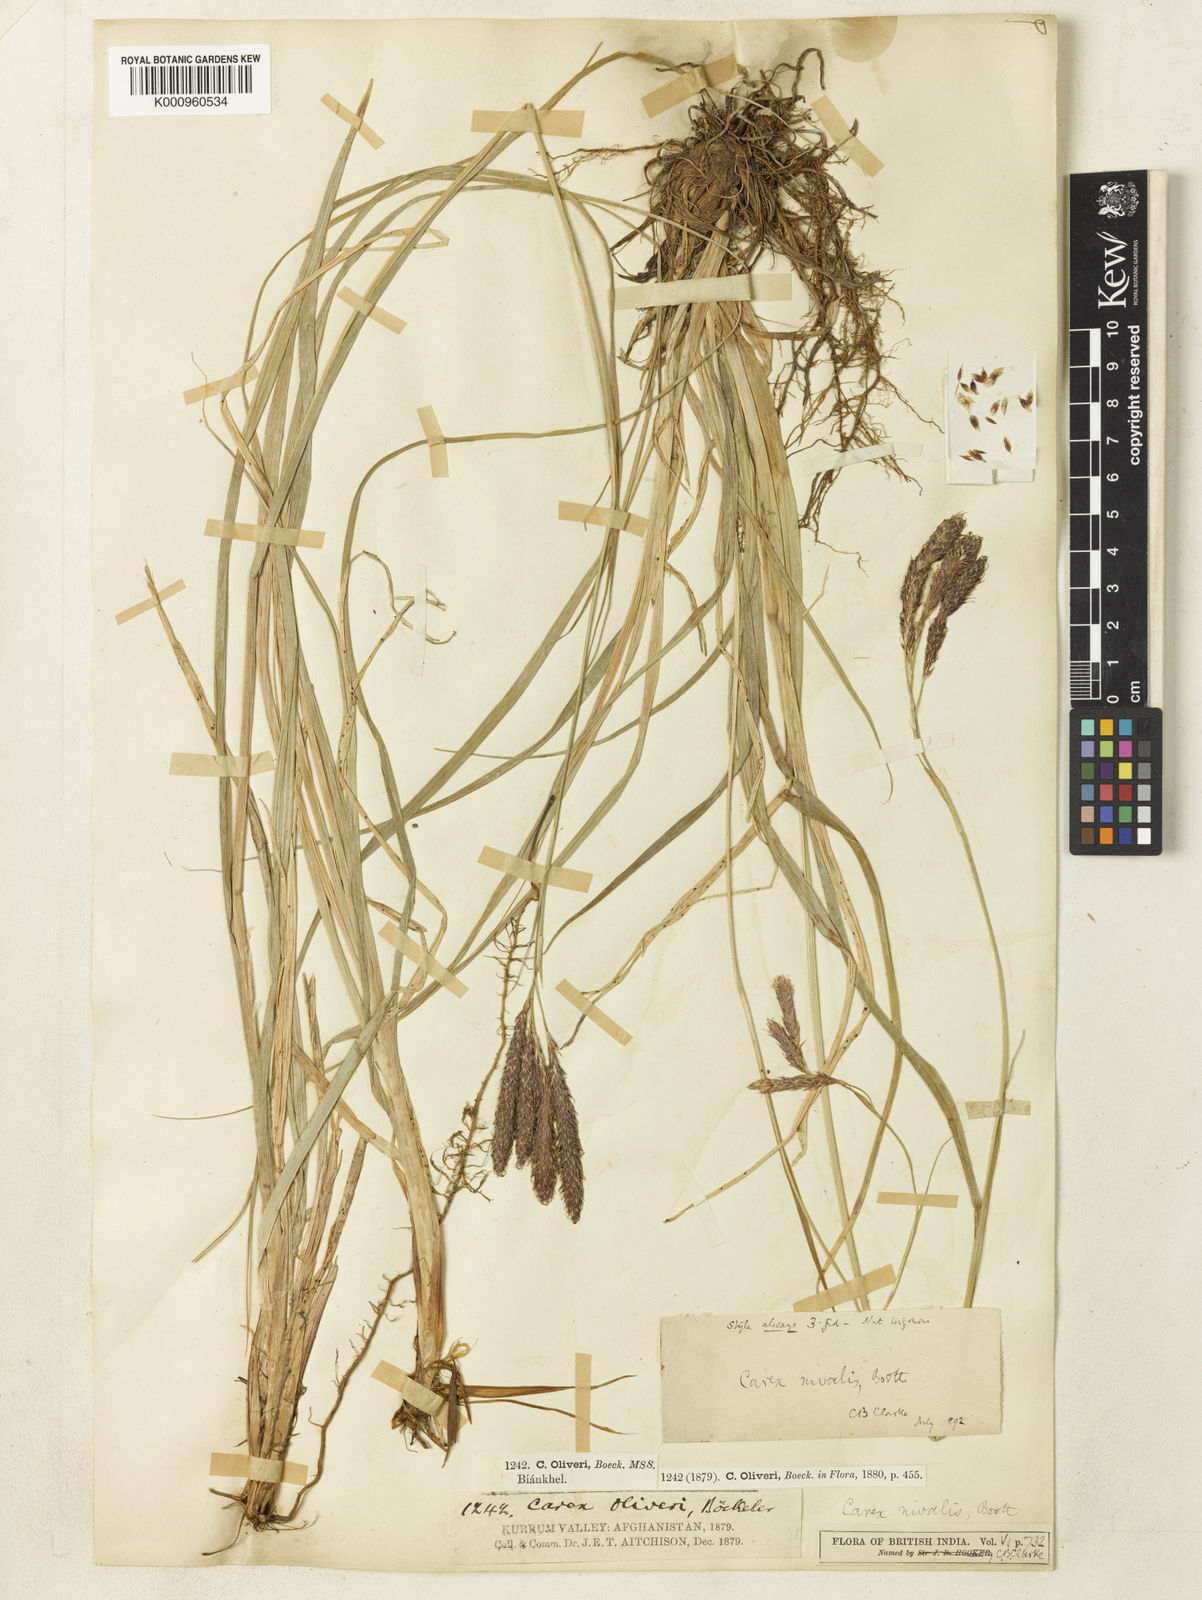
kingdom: Plantae
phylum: Tracheophyta
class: Liliopsida
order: Poales
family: Cyperaceae
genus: Carex
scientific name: Carex nivalis
